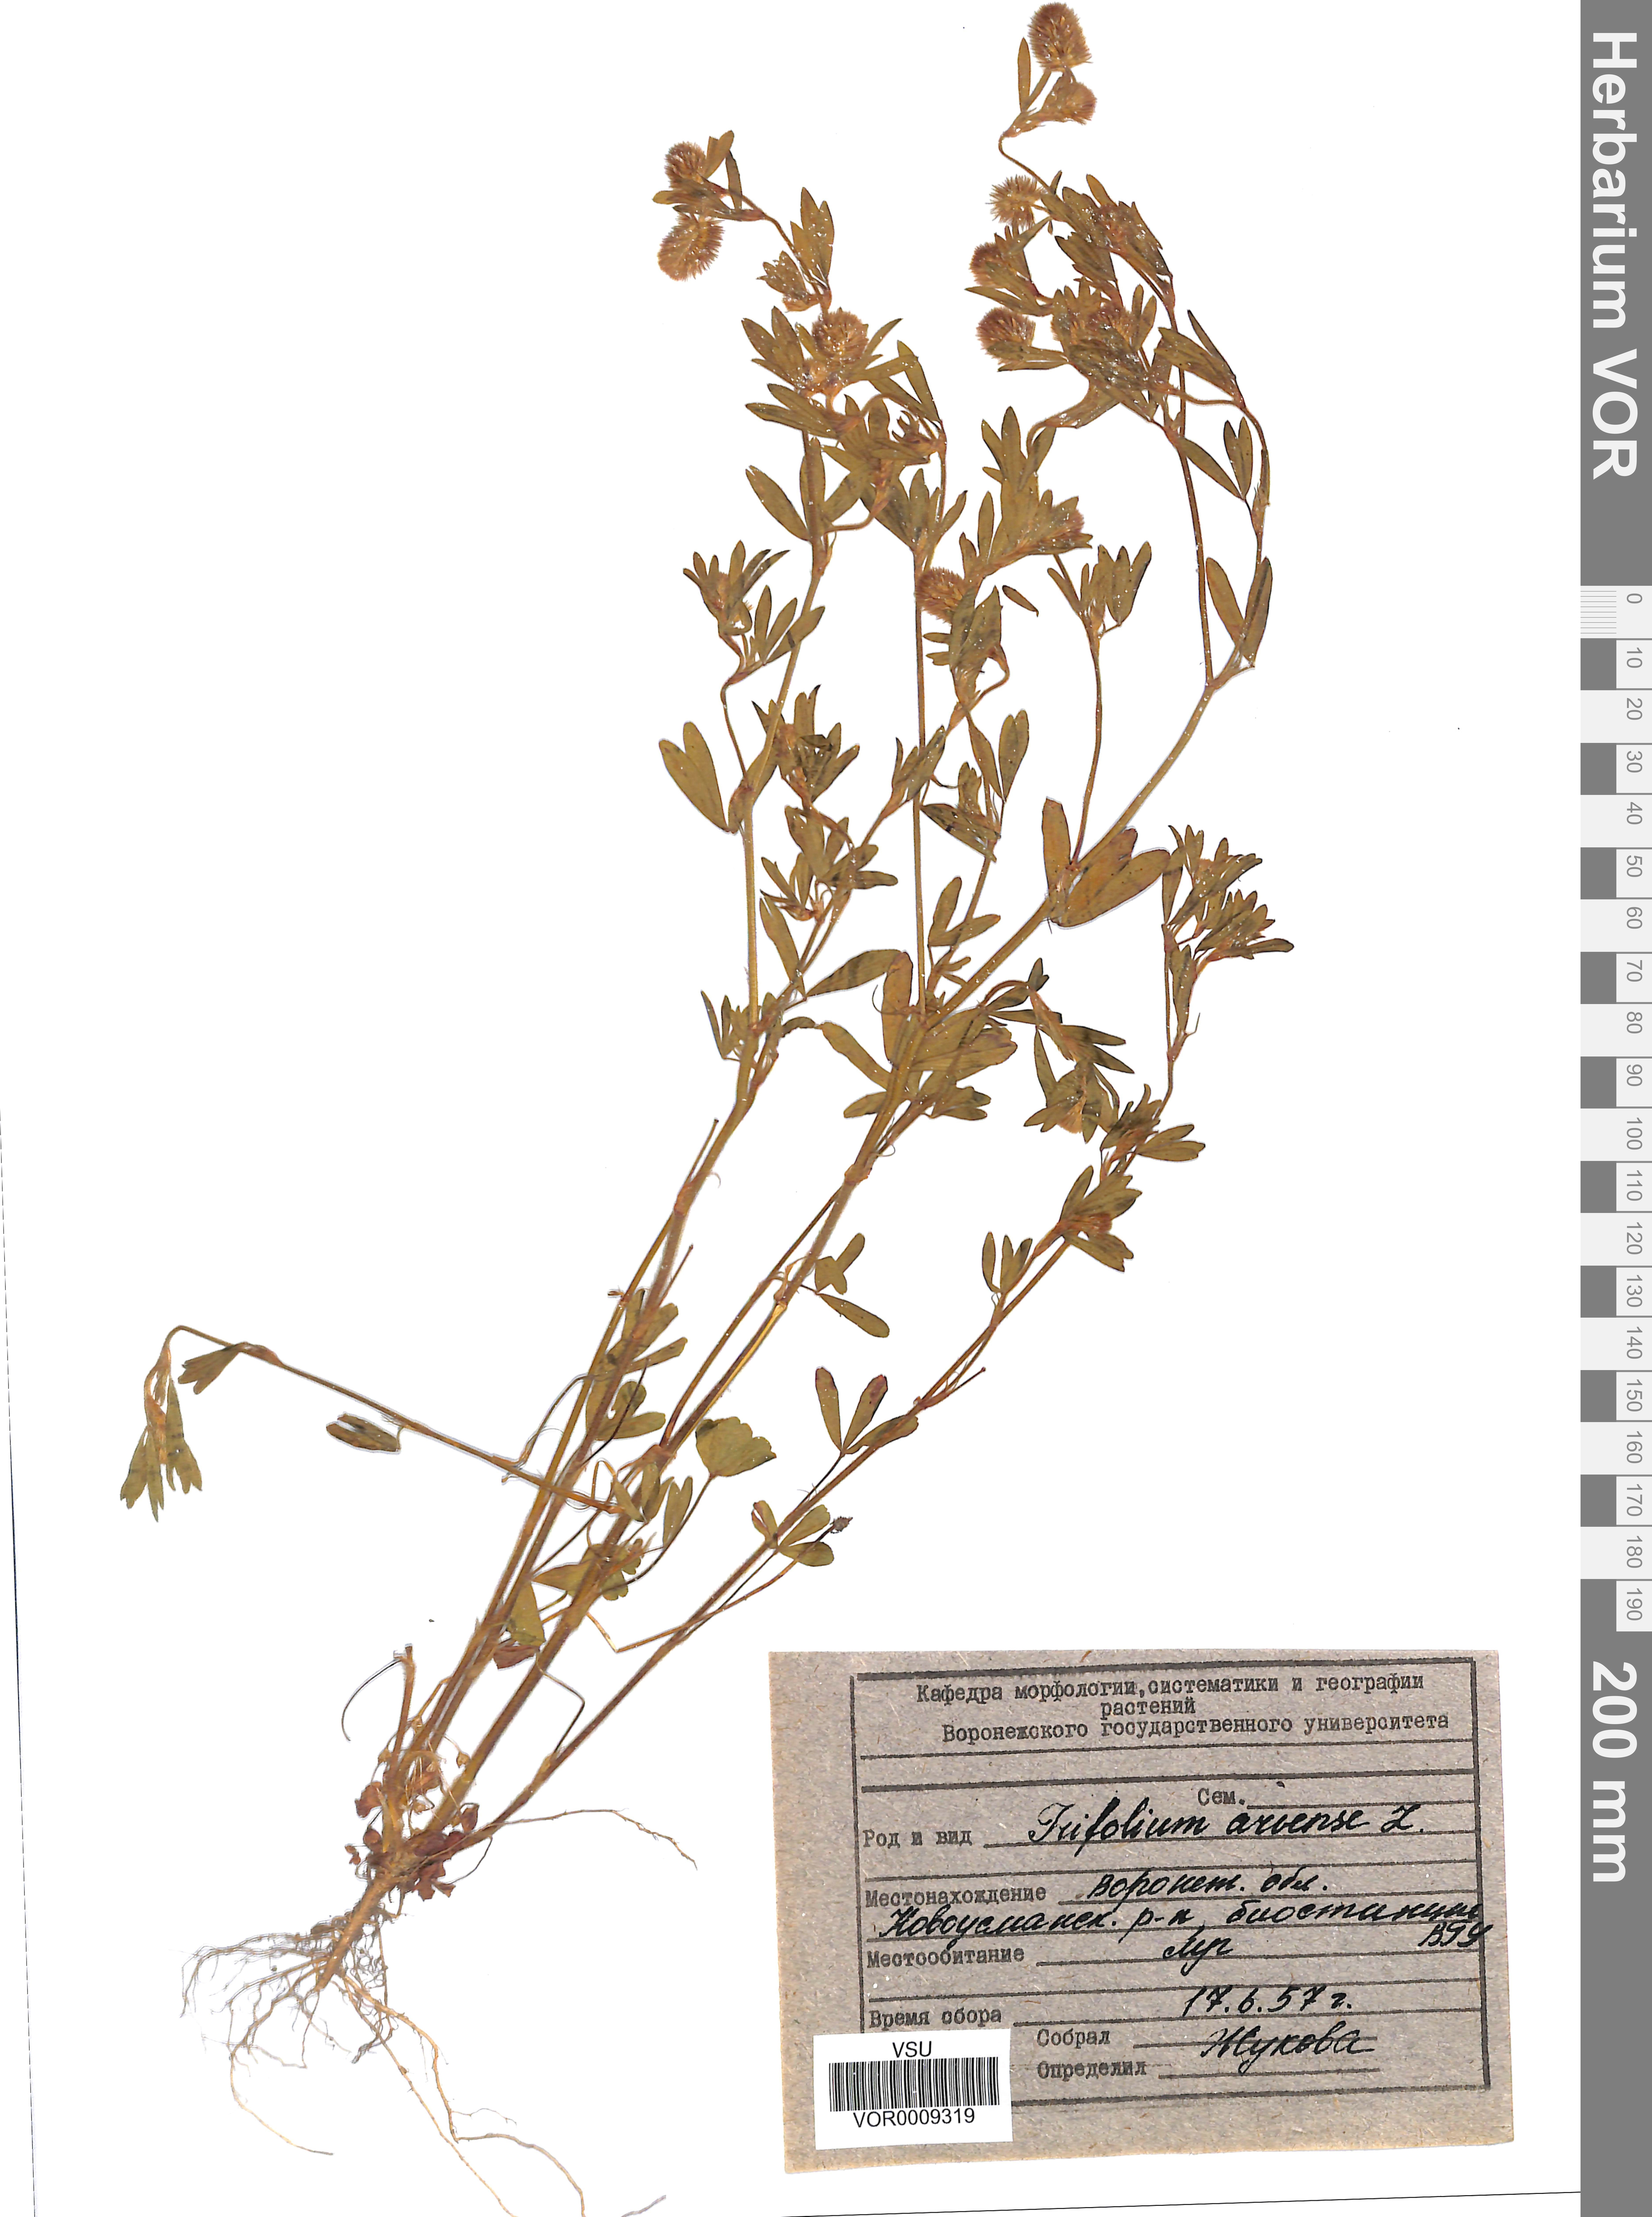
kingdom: Plantae
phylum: Tracheophyta
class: Magnoliopsida
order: Fabales
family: Fabaceae
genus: Trifolium
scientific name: Trifolium arvense
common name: Hare's-foot clover
